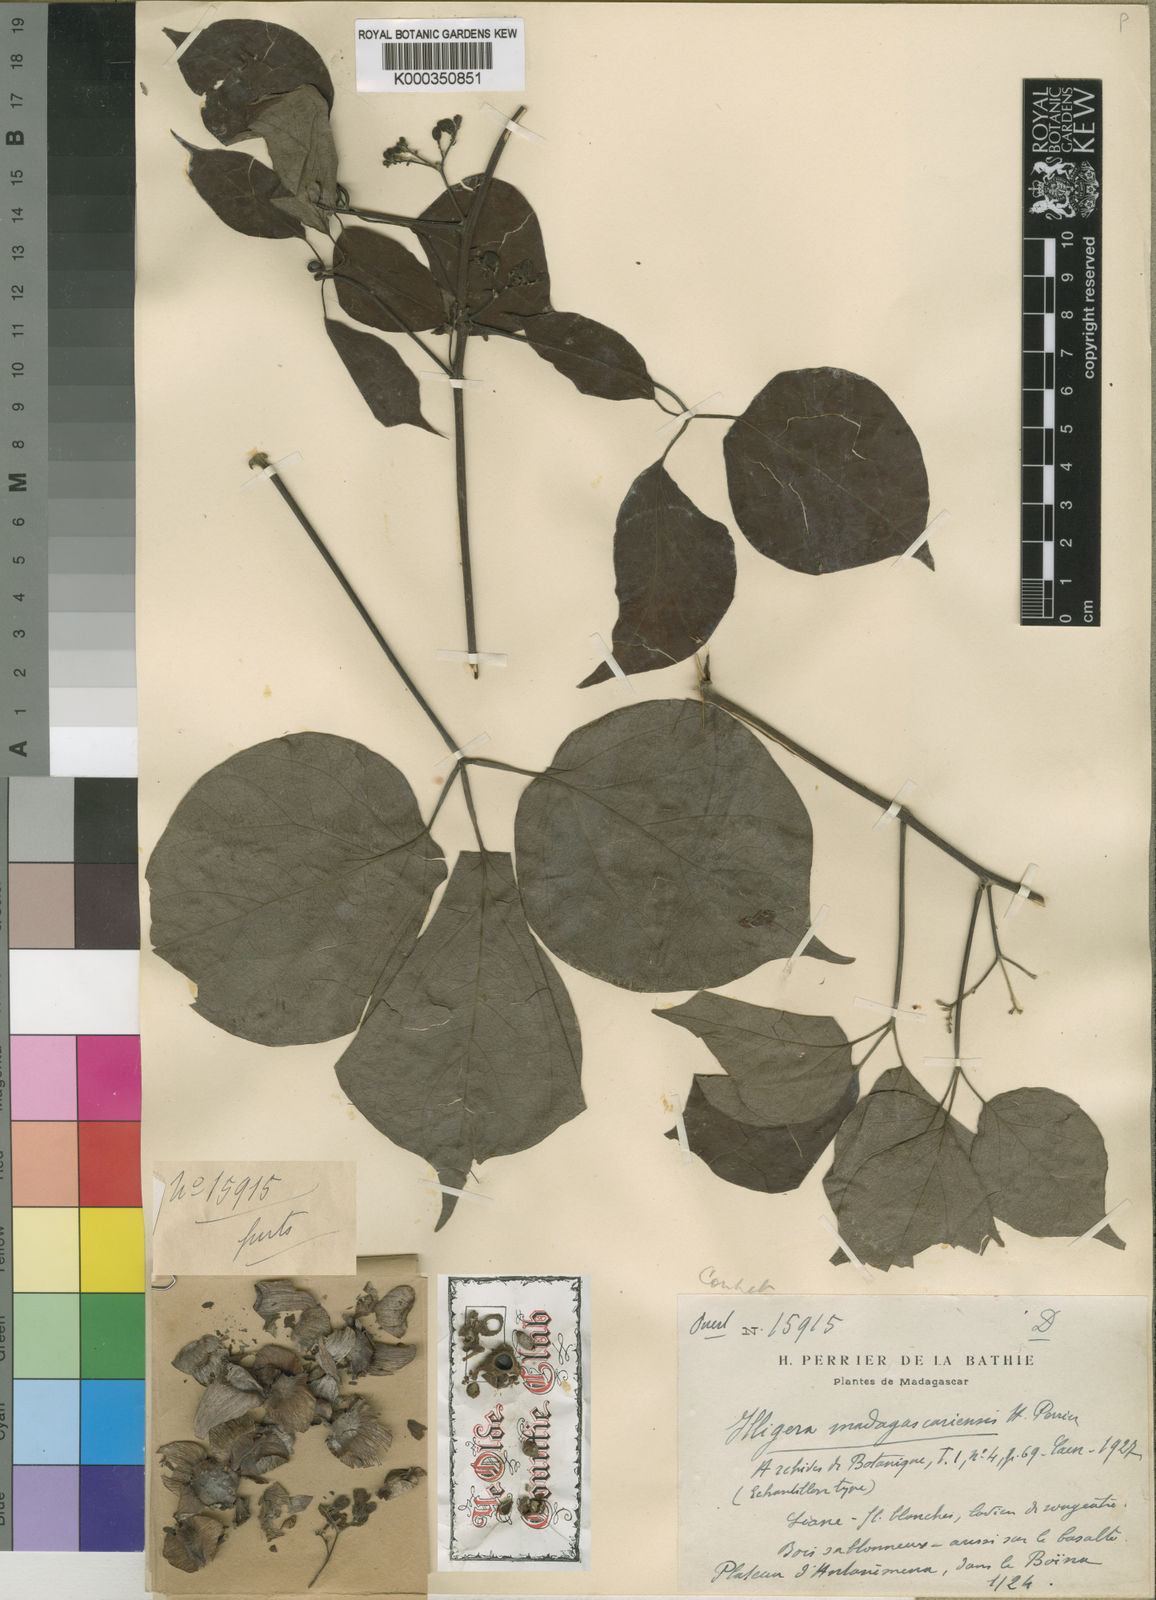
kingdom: Plantae
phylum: Tracheophyta
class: Magnoliopsida
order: Laurales
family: Hernandiaceae
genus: Illigera
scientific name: Illigera madagascariensis
